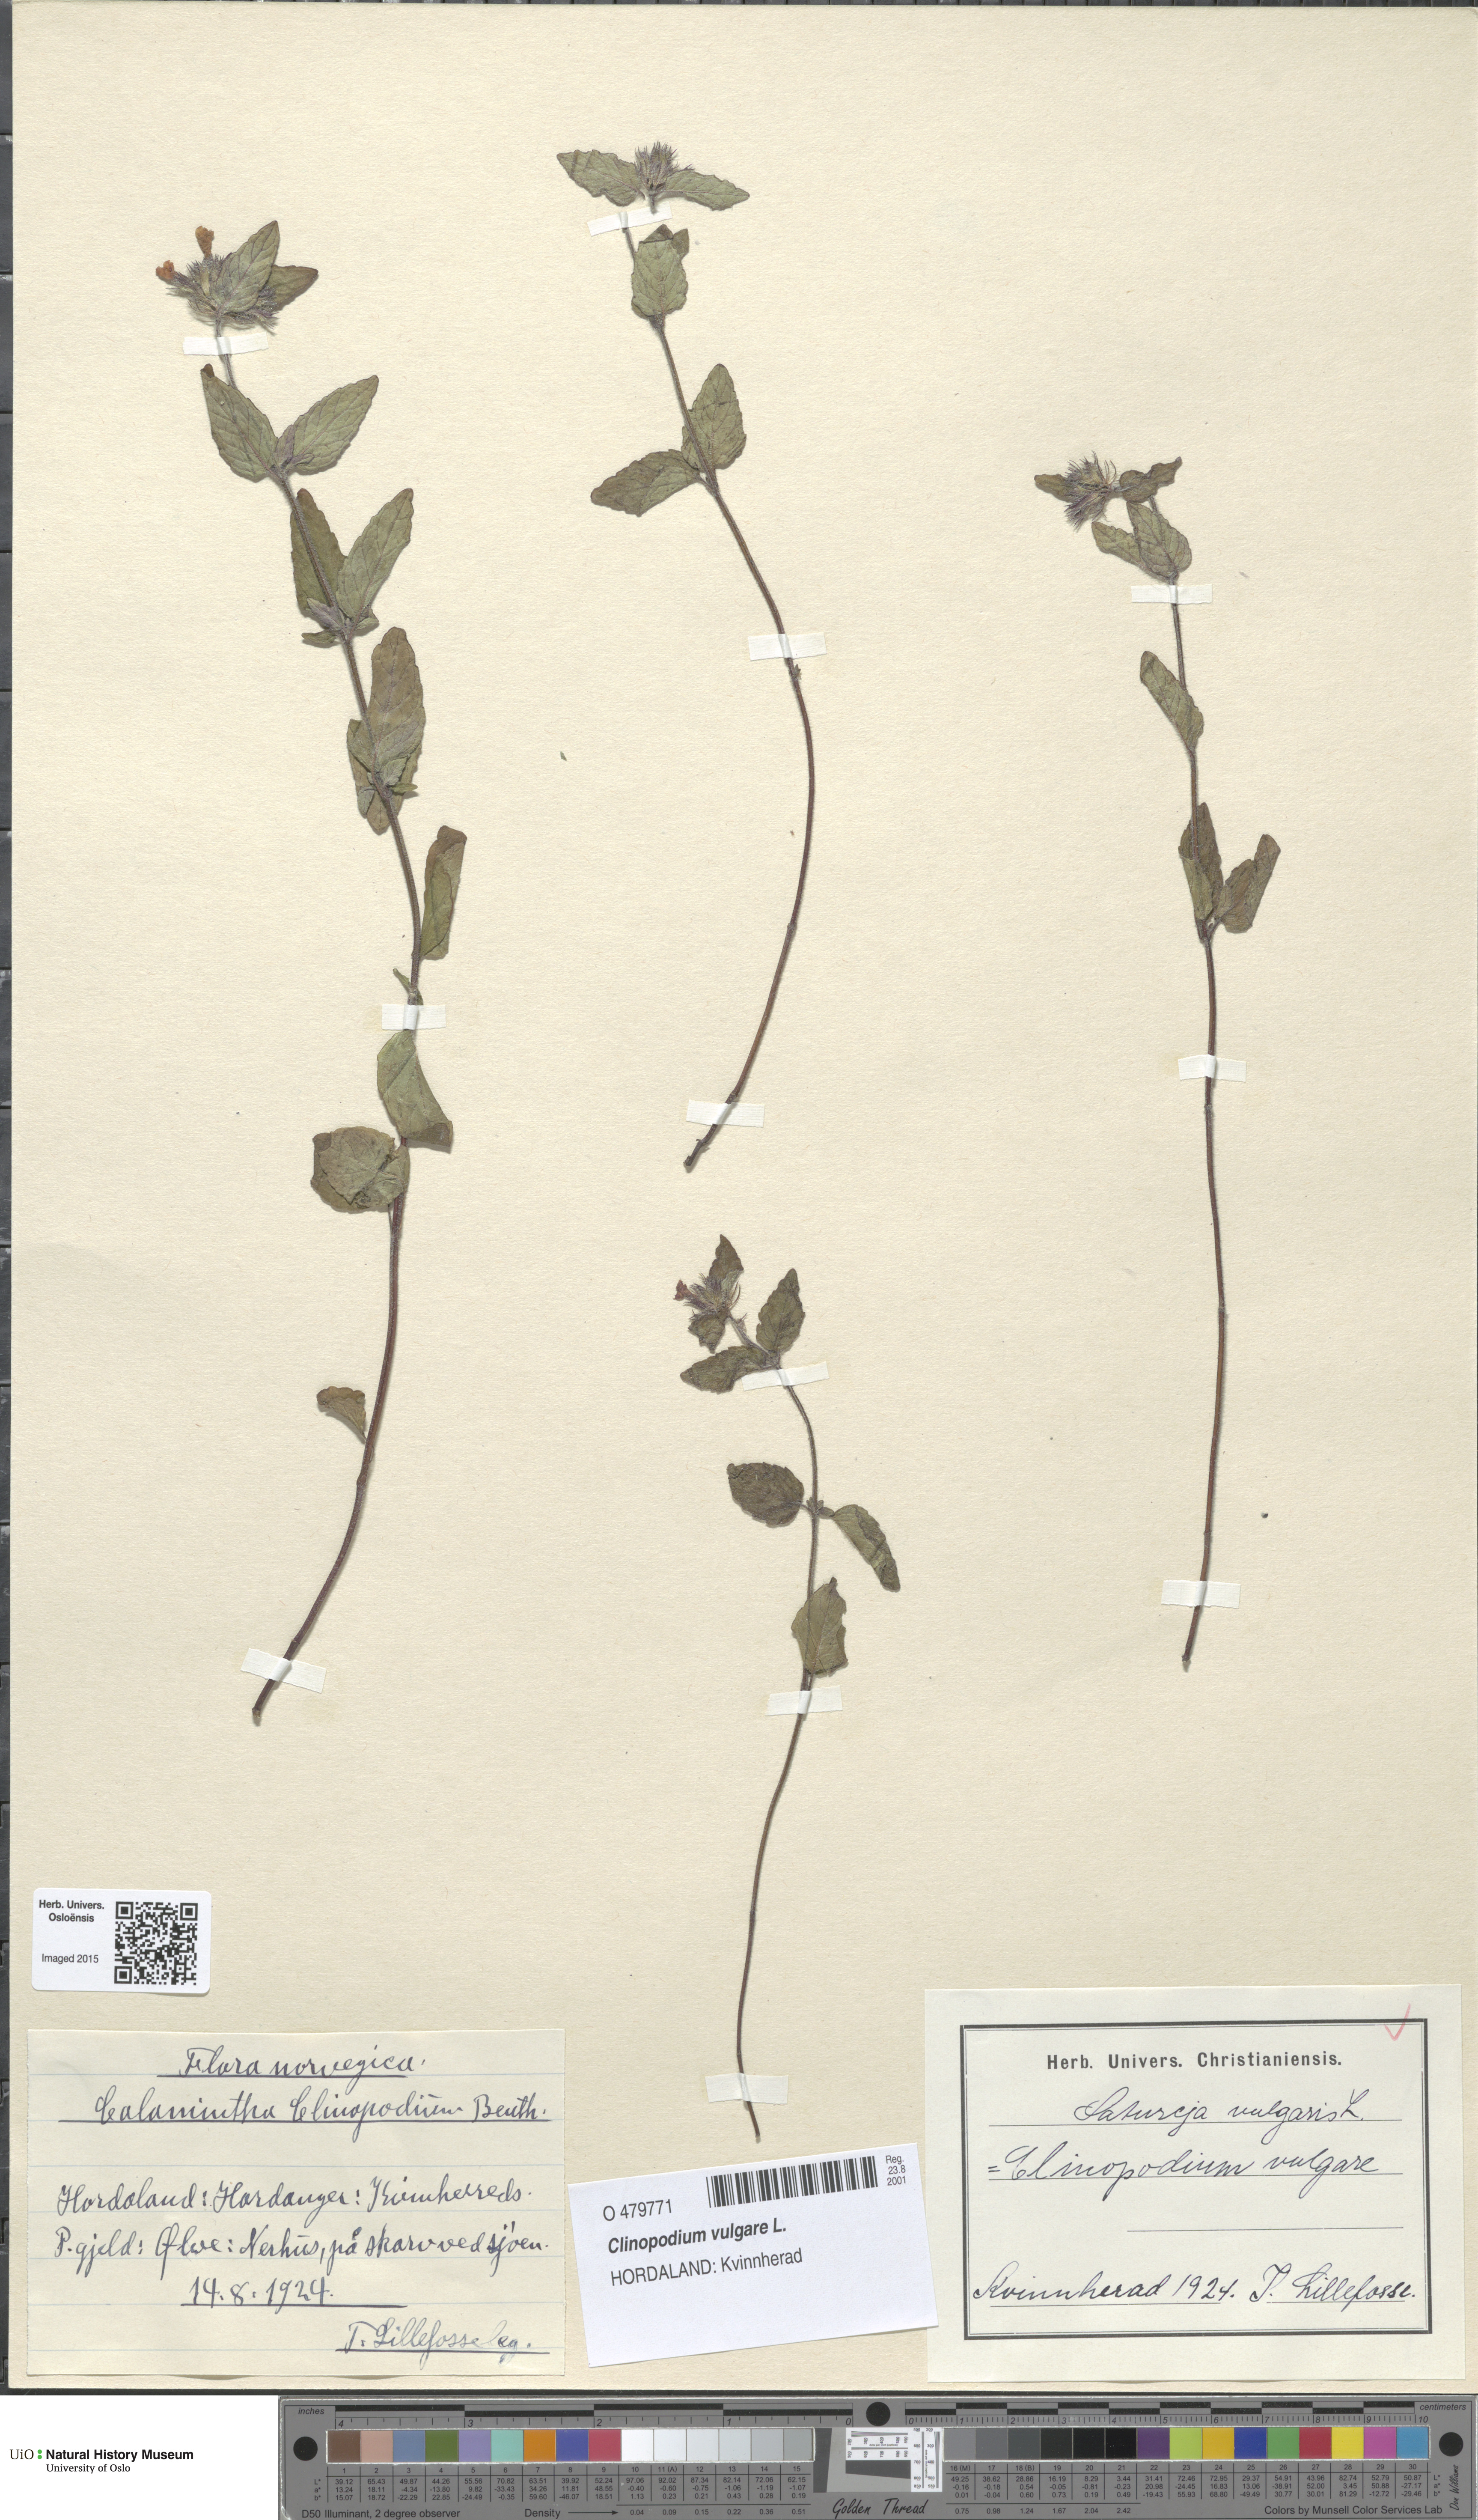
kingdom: Plantae
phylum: Tracheophyta
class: Magnoliopsida
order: Lamiales
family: Lamiaceae
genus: Clinopodium
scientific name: Clinopodium vulgare
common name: Wild basil
